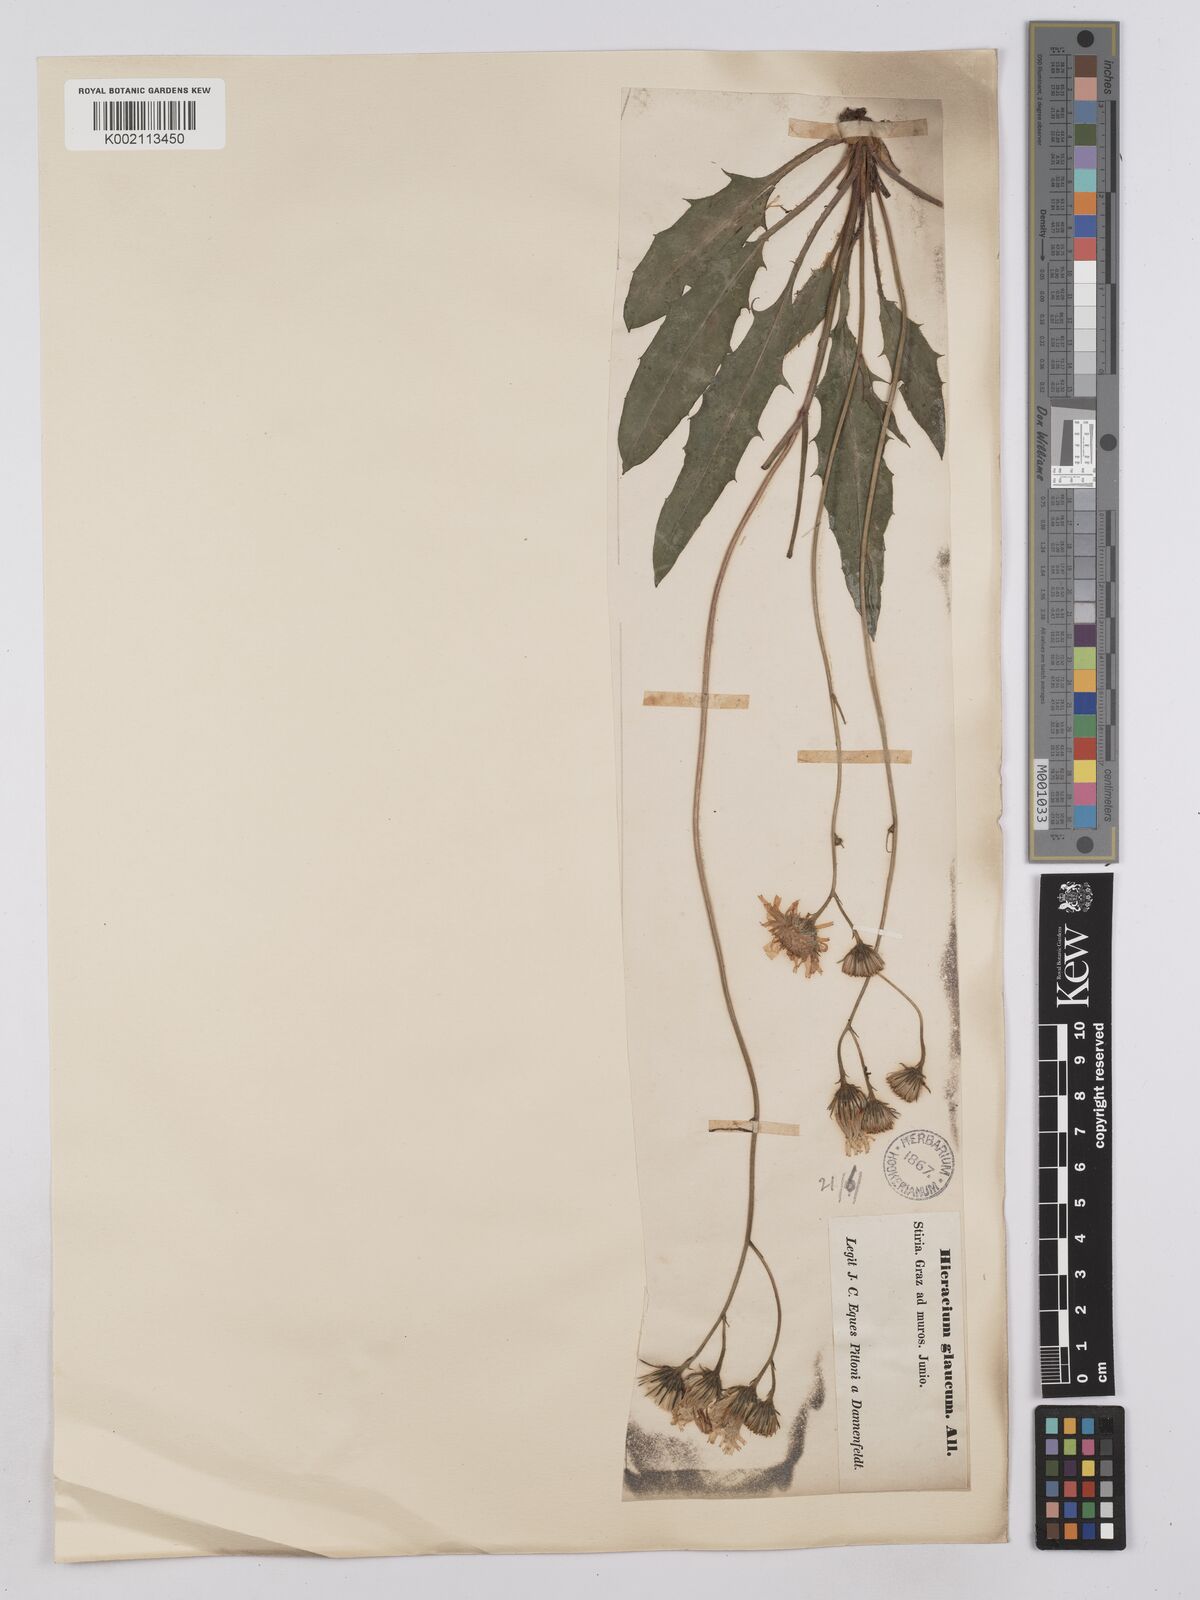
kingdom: Plantae
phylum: Tracheophyta
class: Magnoliopsida
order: Asterales
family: Asteraceae
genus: Hieracium
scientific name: Hieracium calcareum
